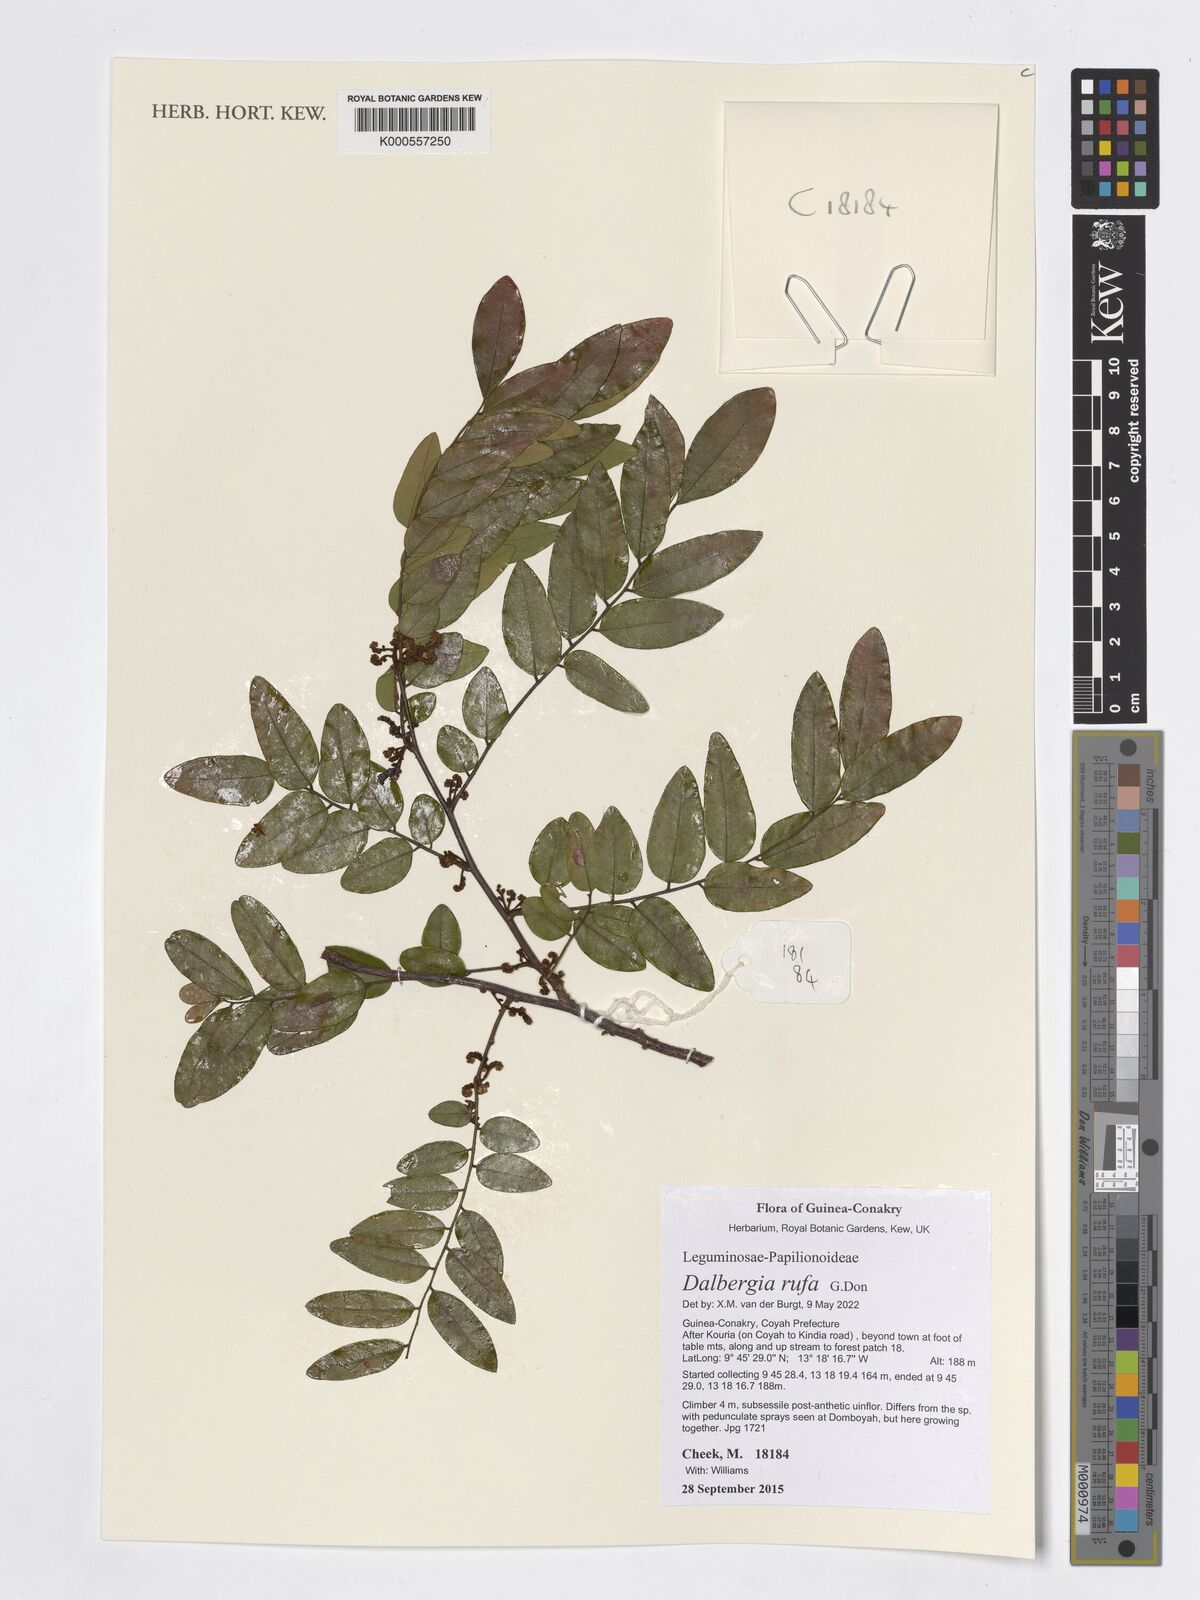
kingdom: Plantae
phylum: Tracheophyta
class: Magnoliopsida
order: Fabales
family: Fabaceae
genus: Dalbergia
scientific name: Dalbergia rufa
